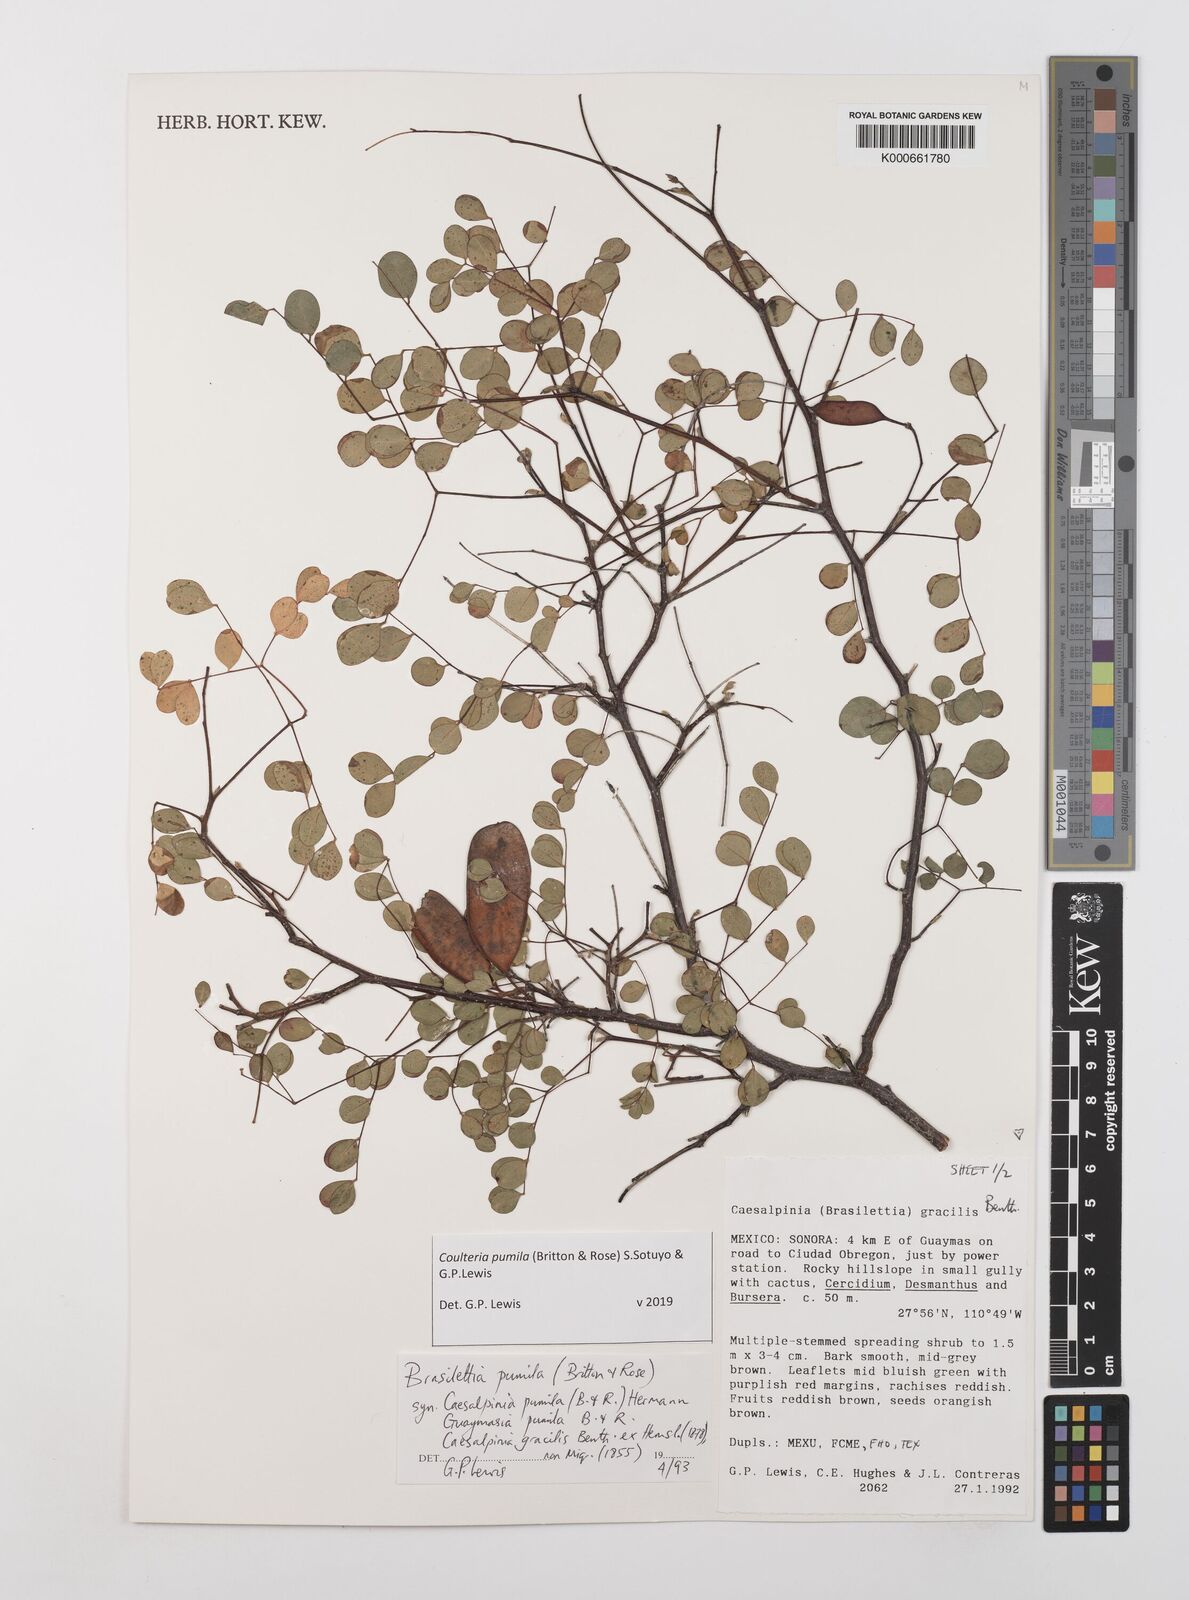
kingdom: Plantae
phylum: Tracheophyta
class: Magnoliopsida
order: Fabales
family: Fabaceae
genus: Coulteria
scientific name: Coulteria
